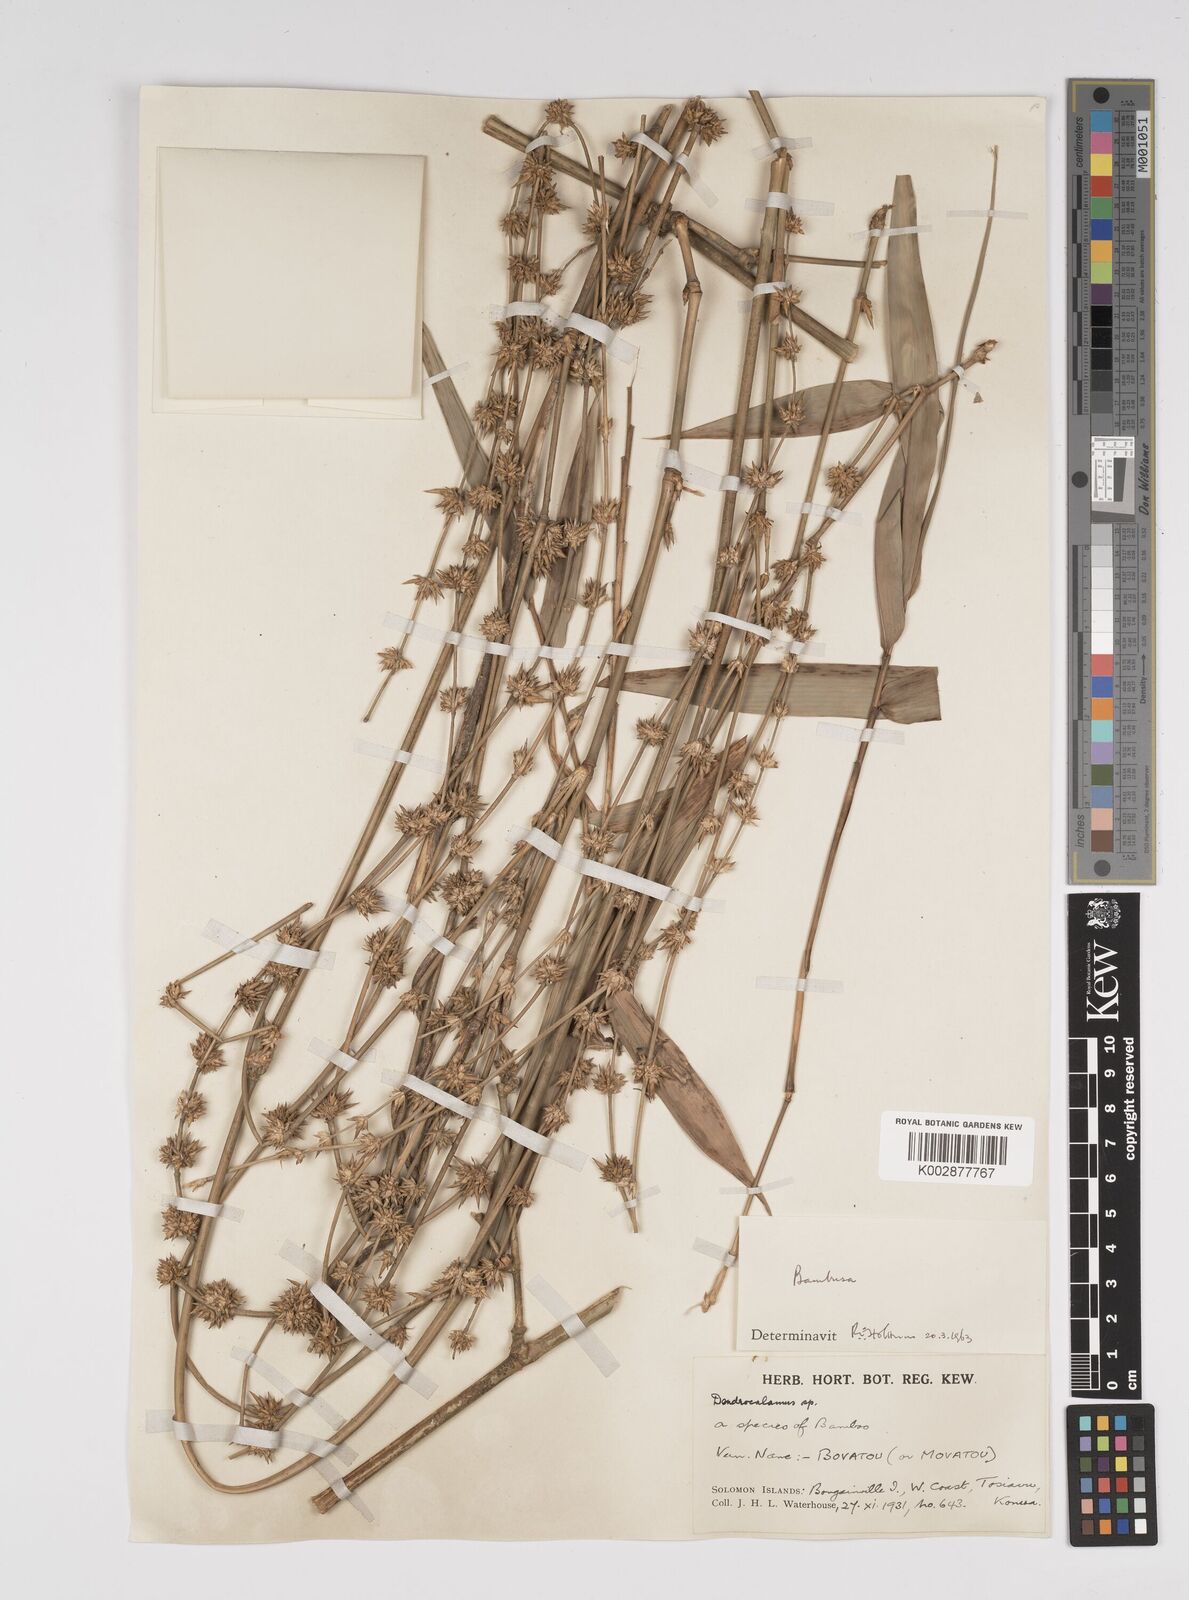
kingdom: Plantae
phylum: Tracheophyta
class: Liliopsida
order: Poales
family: Poaceae
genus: Bambusa
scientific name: Bambusa
